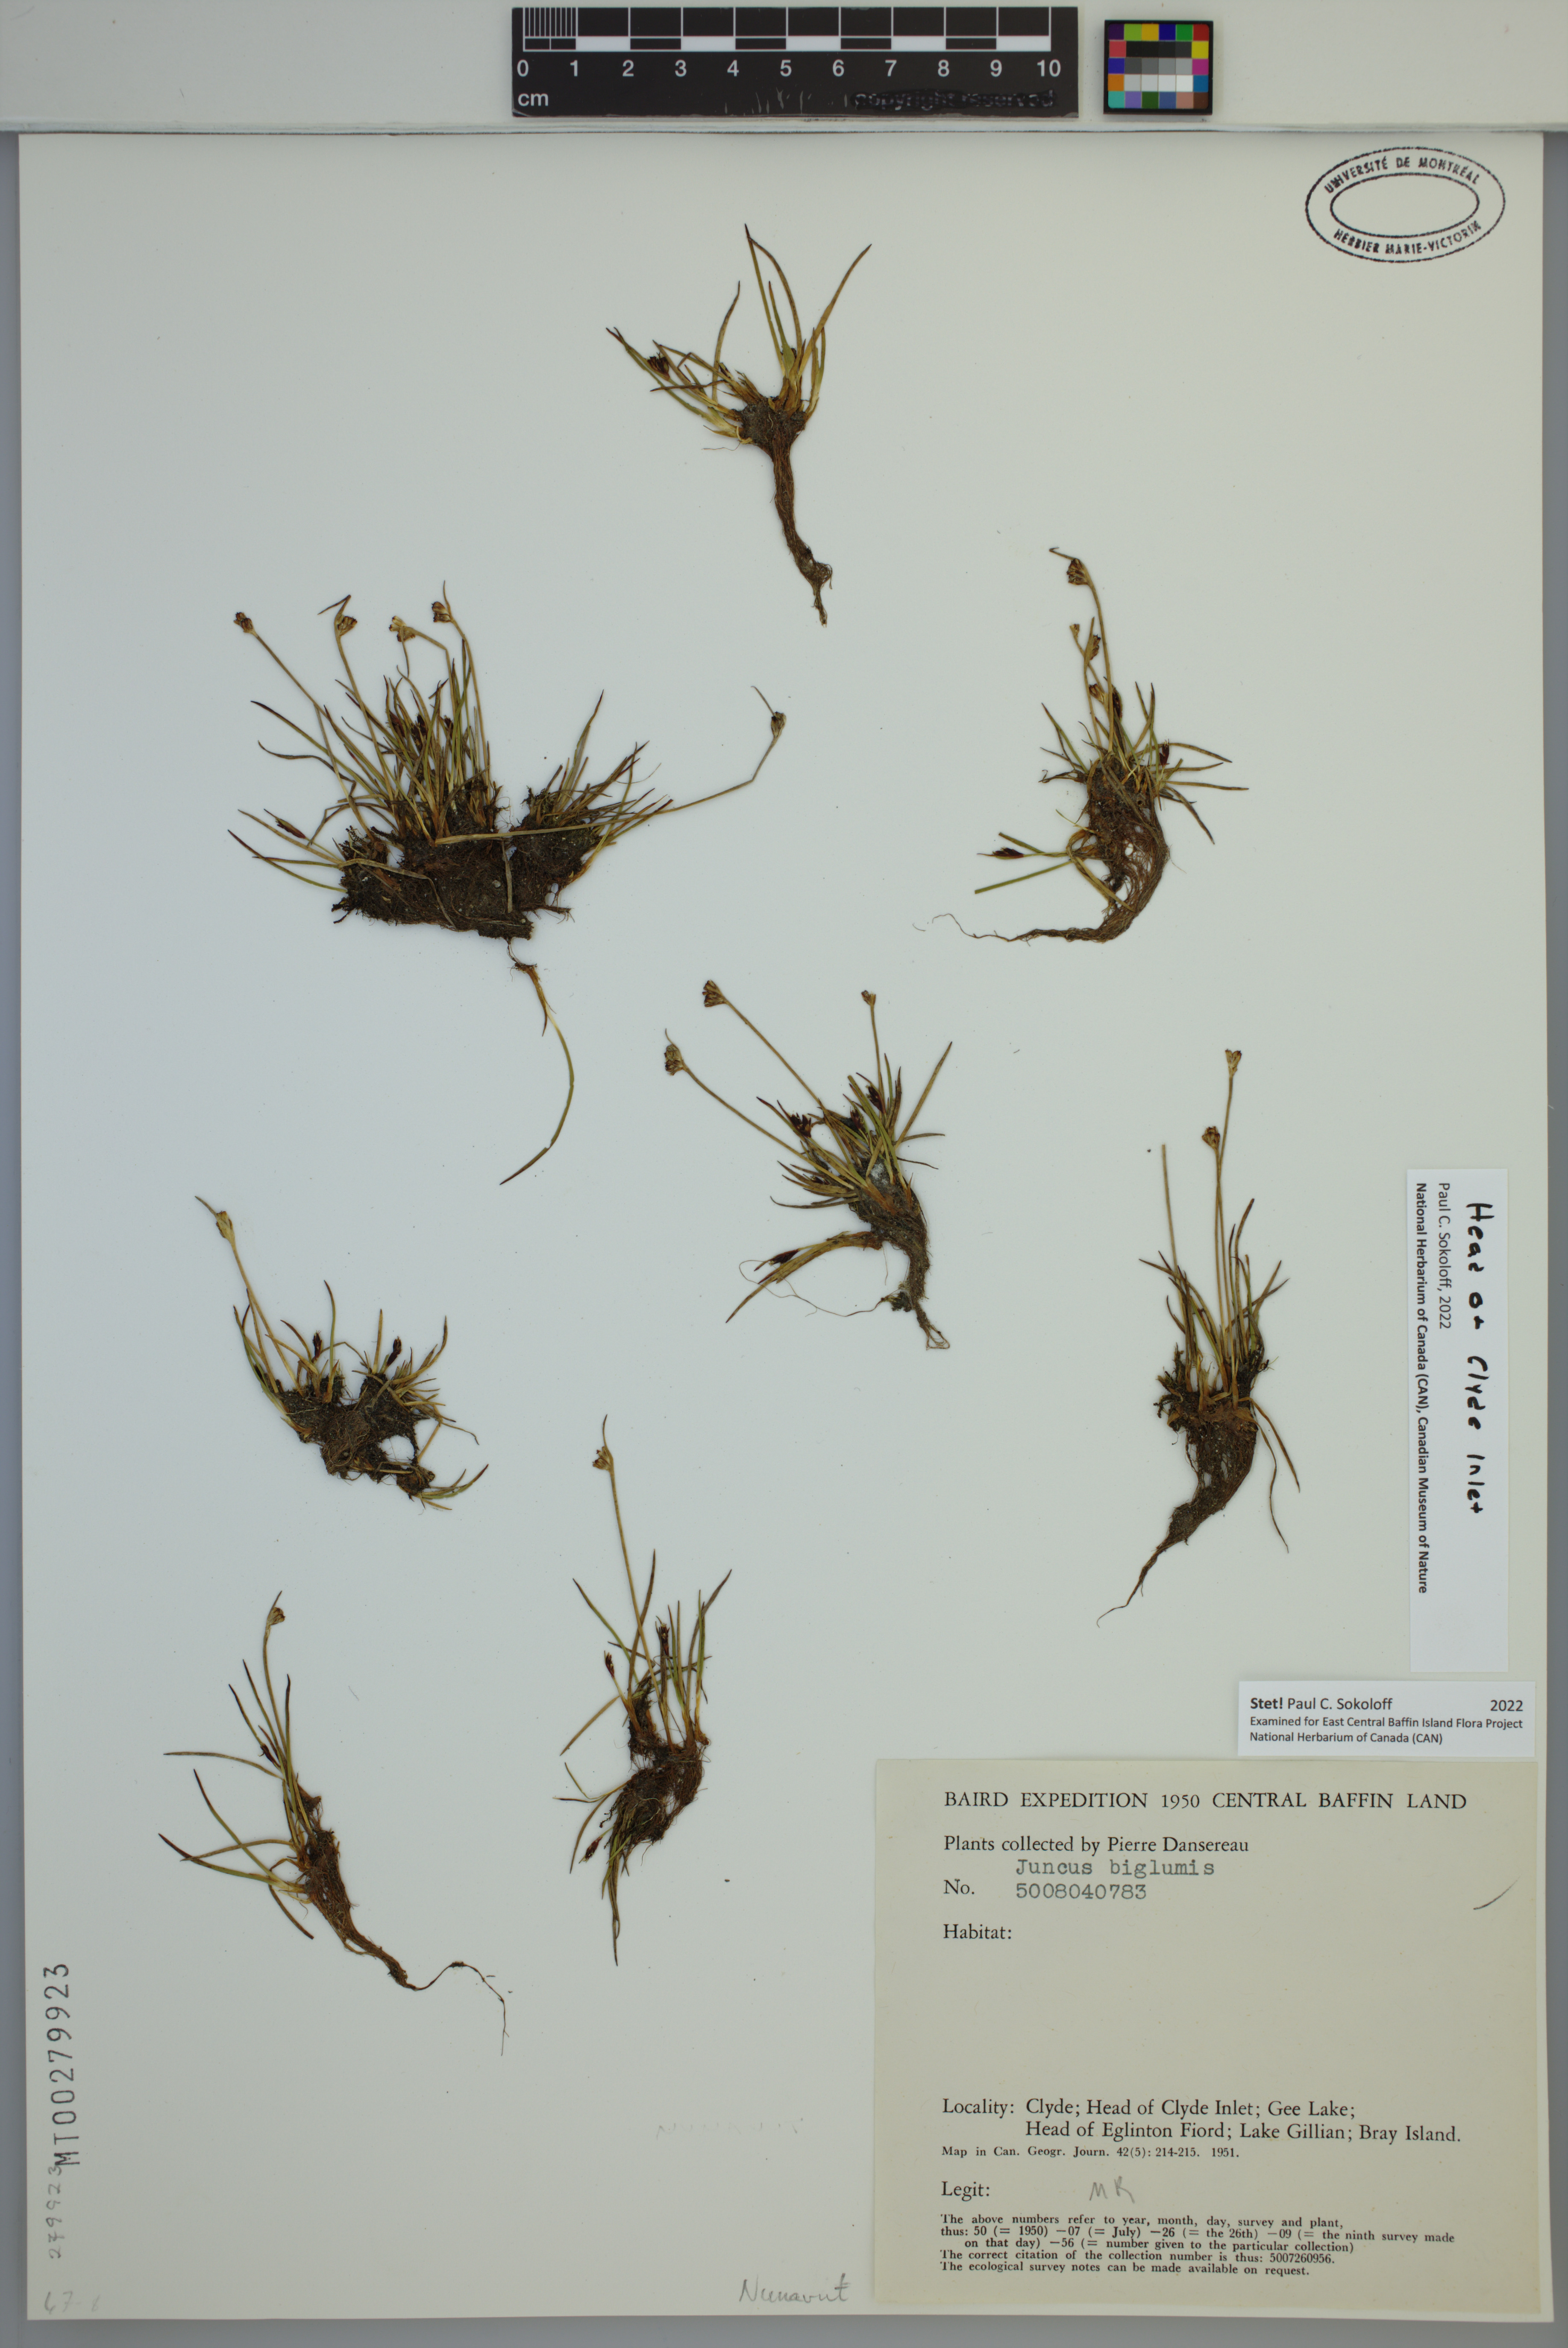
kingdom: Plantae
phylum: Tracheophyta
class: Liliopsida
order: Poales
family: Juncaceae
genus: Juncus
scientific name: Juncus biglumis
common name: Two-flowered rush
